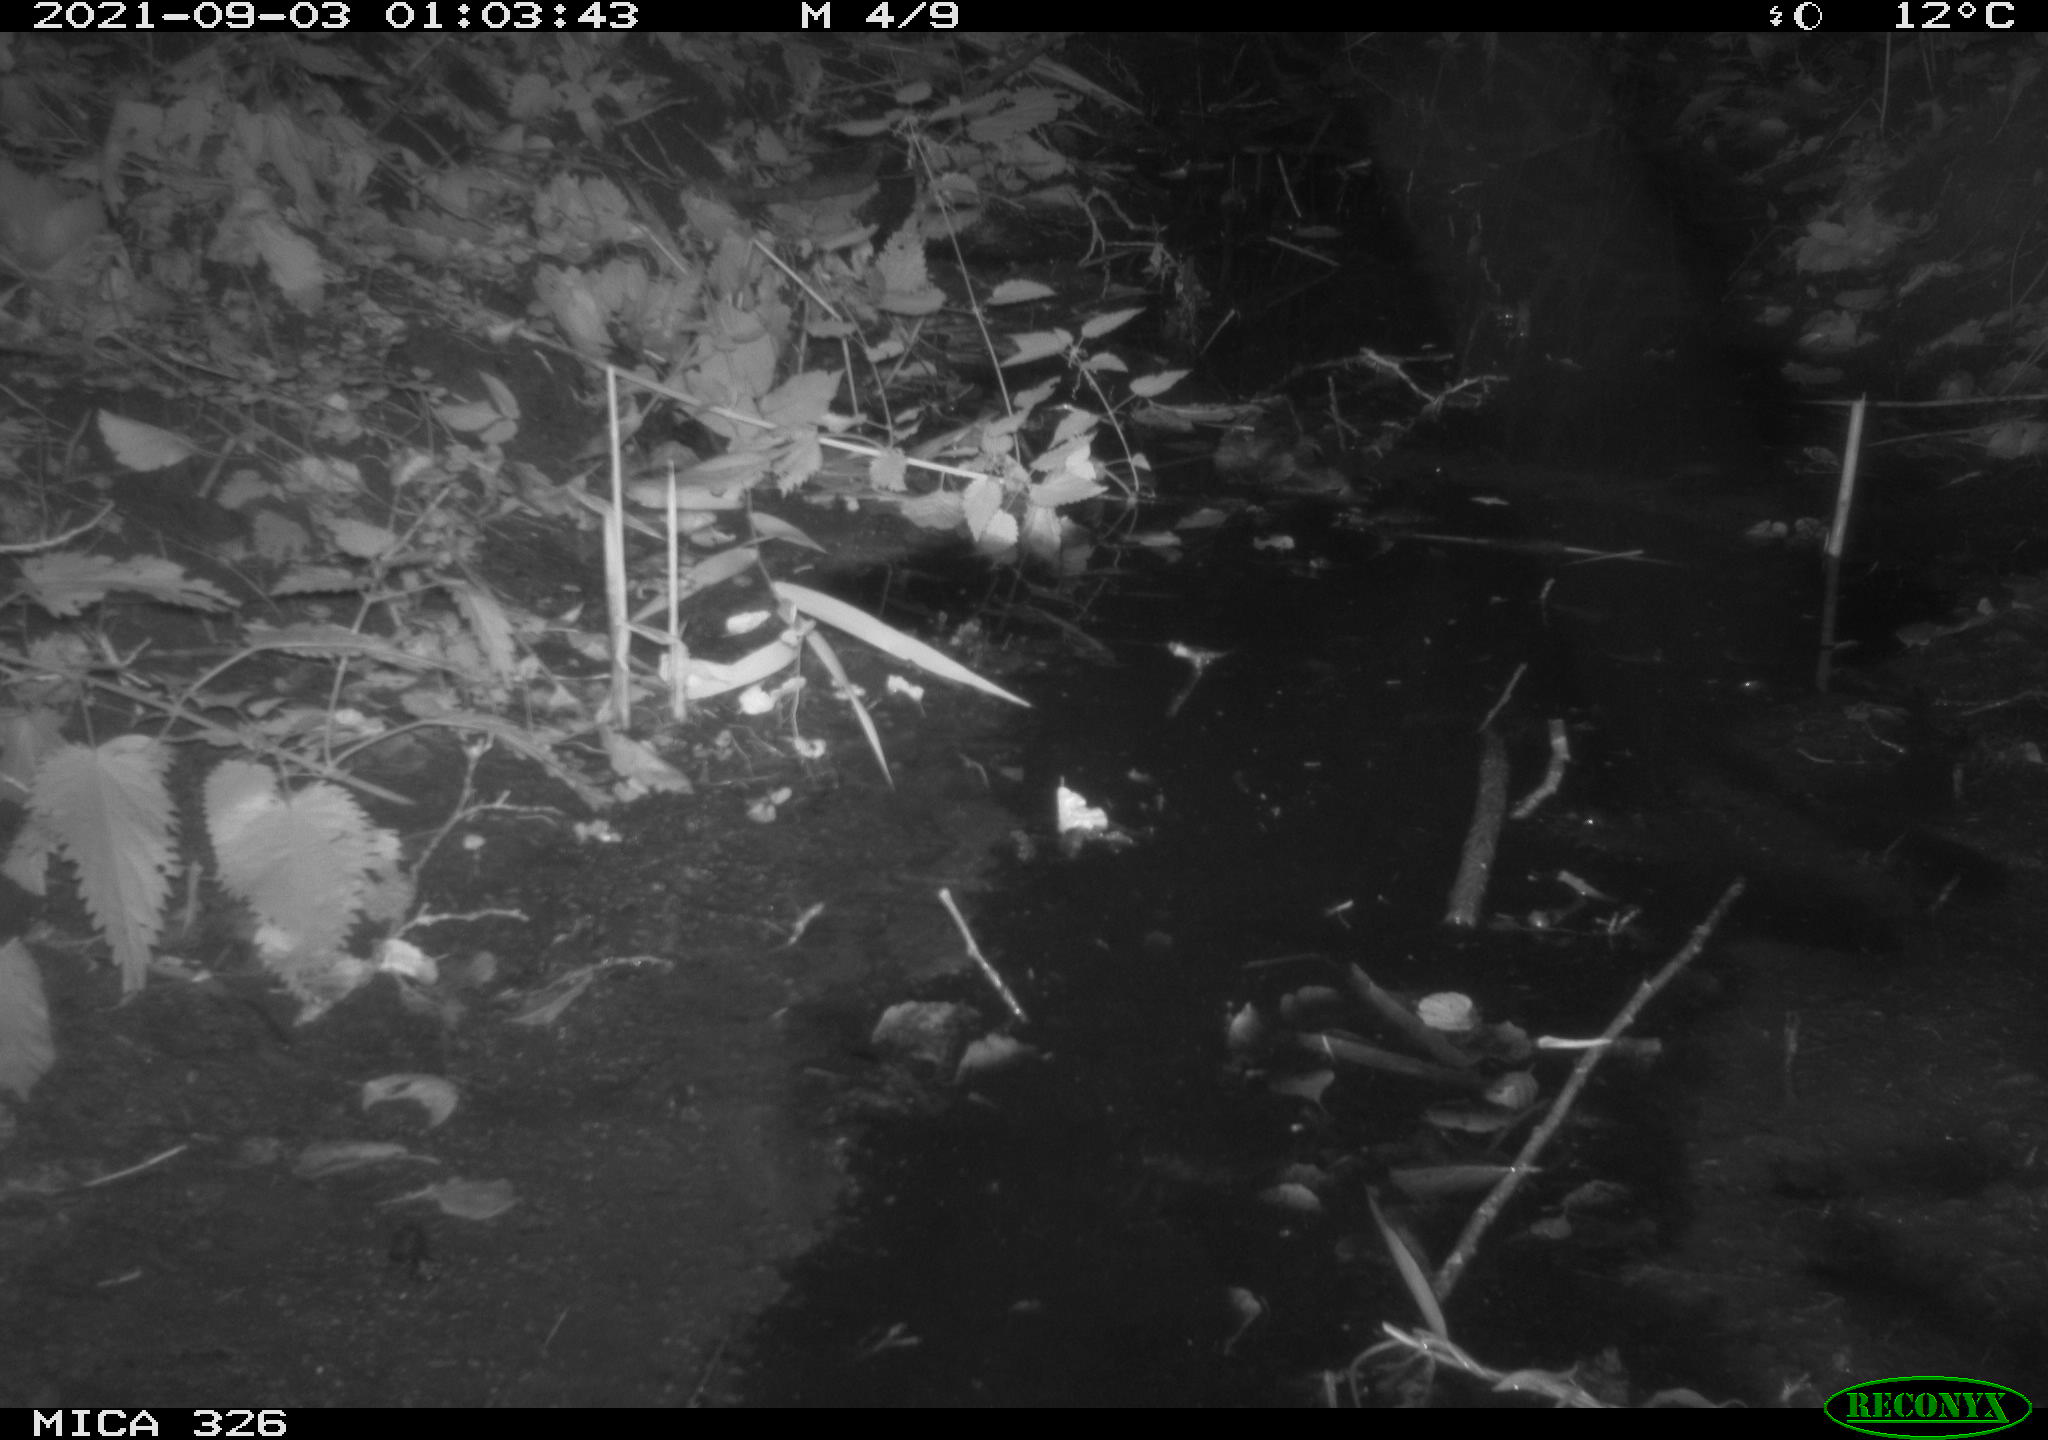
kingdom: Animalia
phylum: Chordata
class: Mammalia
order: Rodentia
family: Cricetidae
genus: Ondatra
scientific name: Ondatra zibethicus
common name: Muskrat
